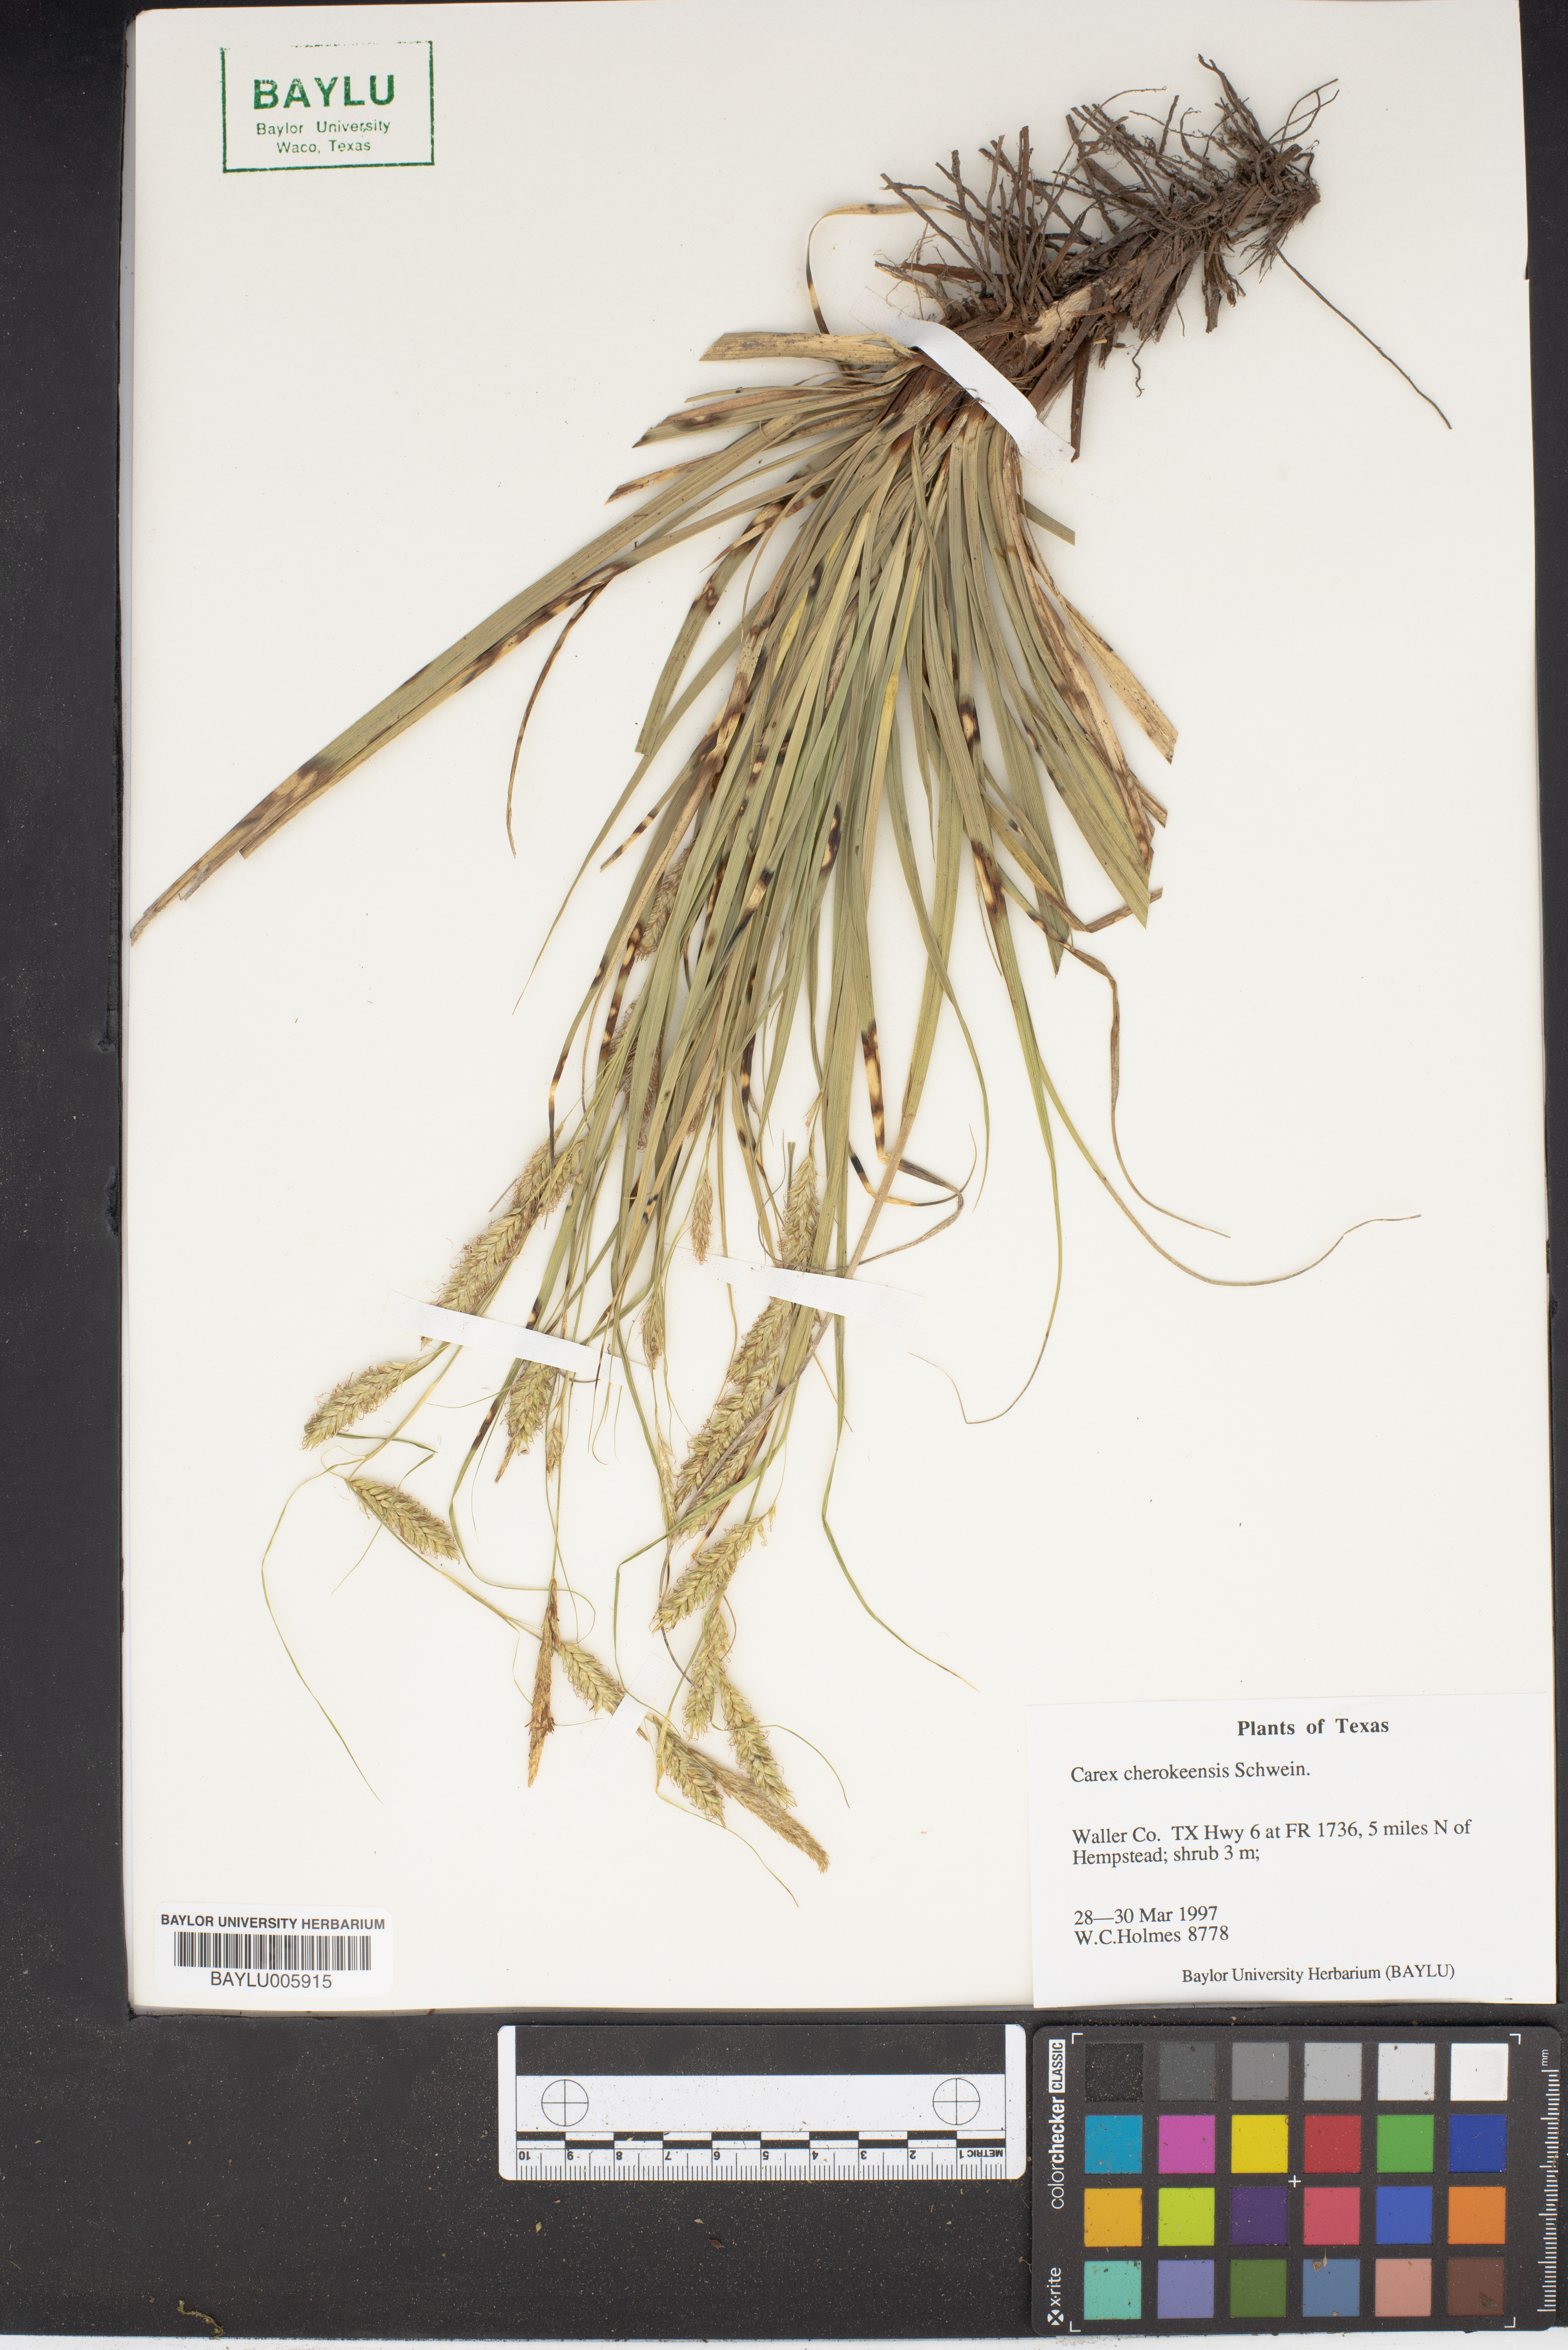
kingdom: Plantae
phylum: Tracheophyta
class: Liliopsida
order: Poales
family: Cyperaceae
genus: Carex
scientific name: Carex cherokeensis
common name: Cherokee sedge
